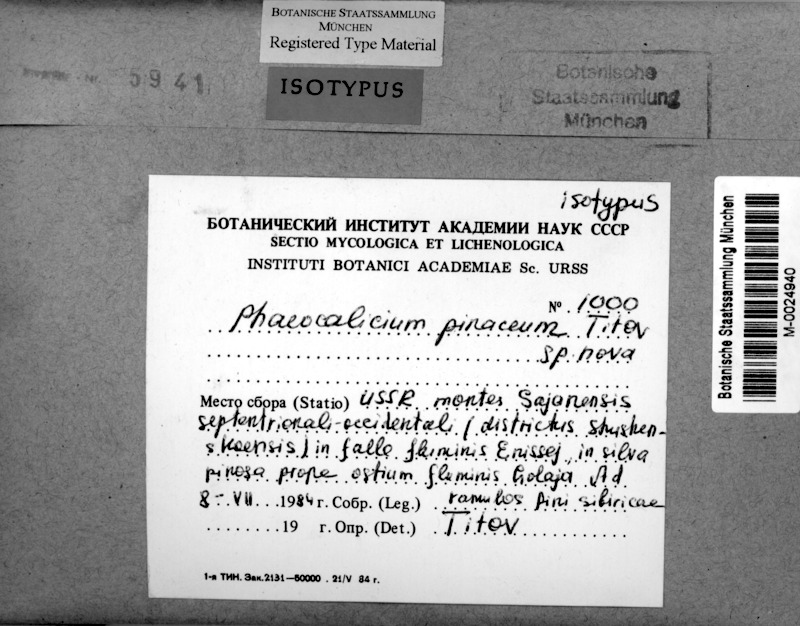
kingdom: Fungi
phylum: Ascomycota
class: Eurotiomycetes
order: Mycocaliciales
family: Mycocaliciaceae
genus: Phaeocalicium
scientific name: Phaeocalicium pinaceum
